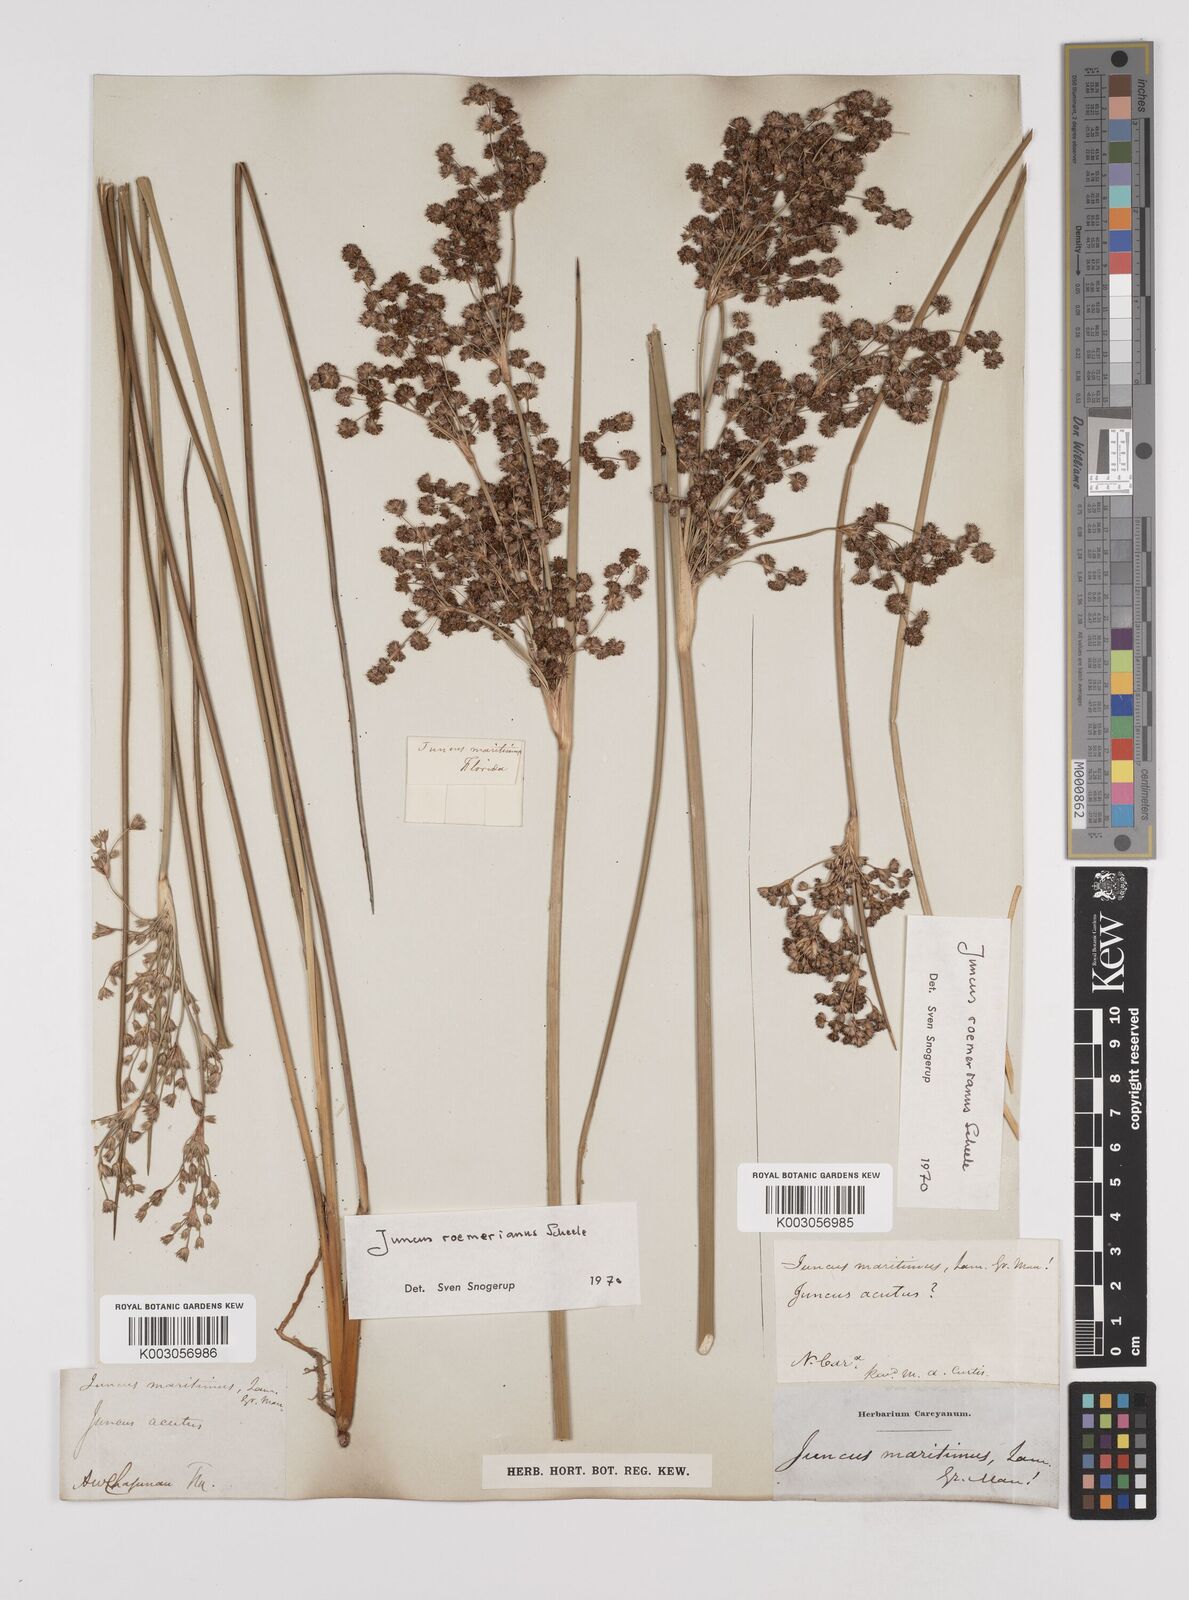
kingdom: Plantae
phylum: Tracheophyta
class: Liliopsida
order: Poales
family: Juncaceae
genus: Juncus
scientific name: Juncus roemerianus
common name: Roemer's rush
